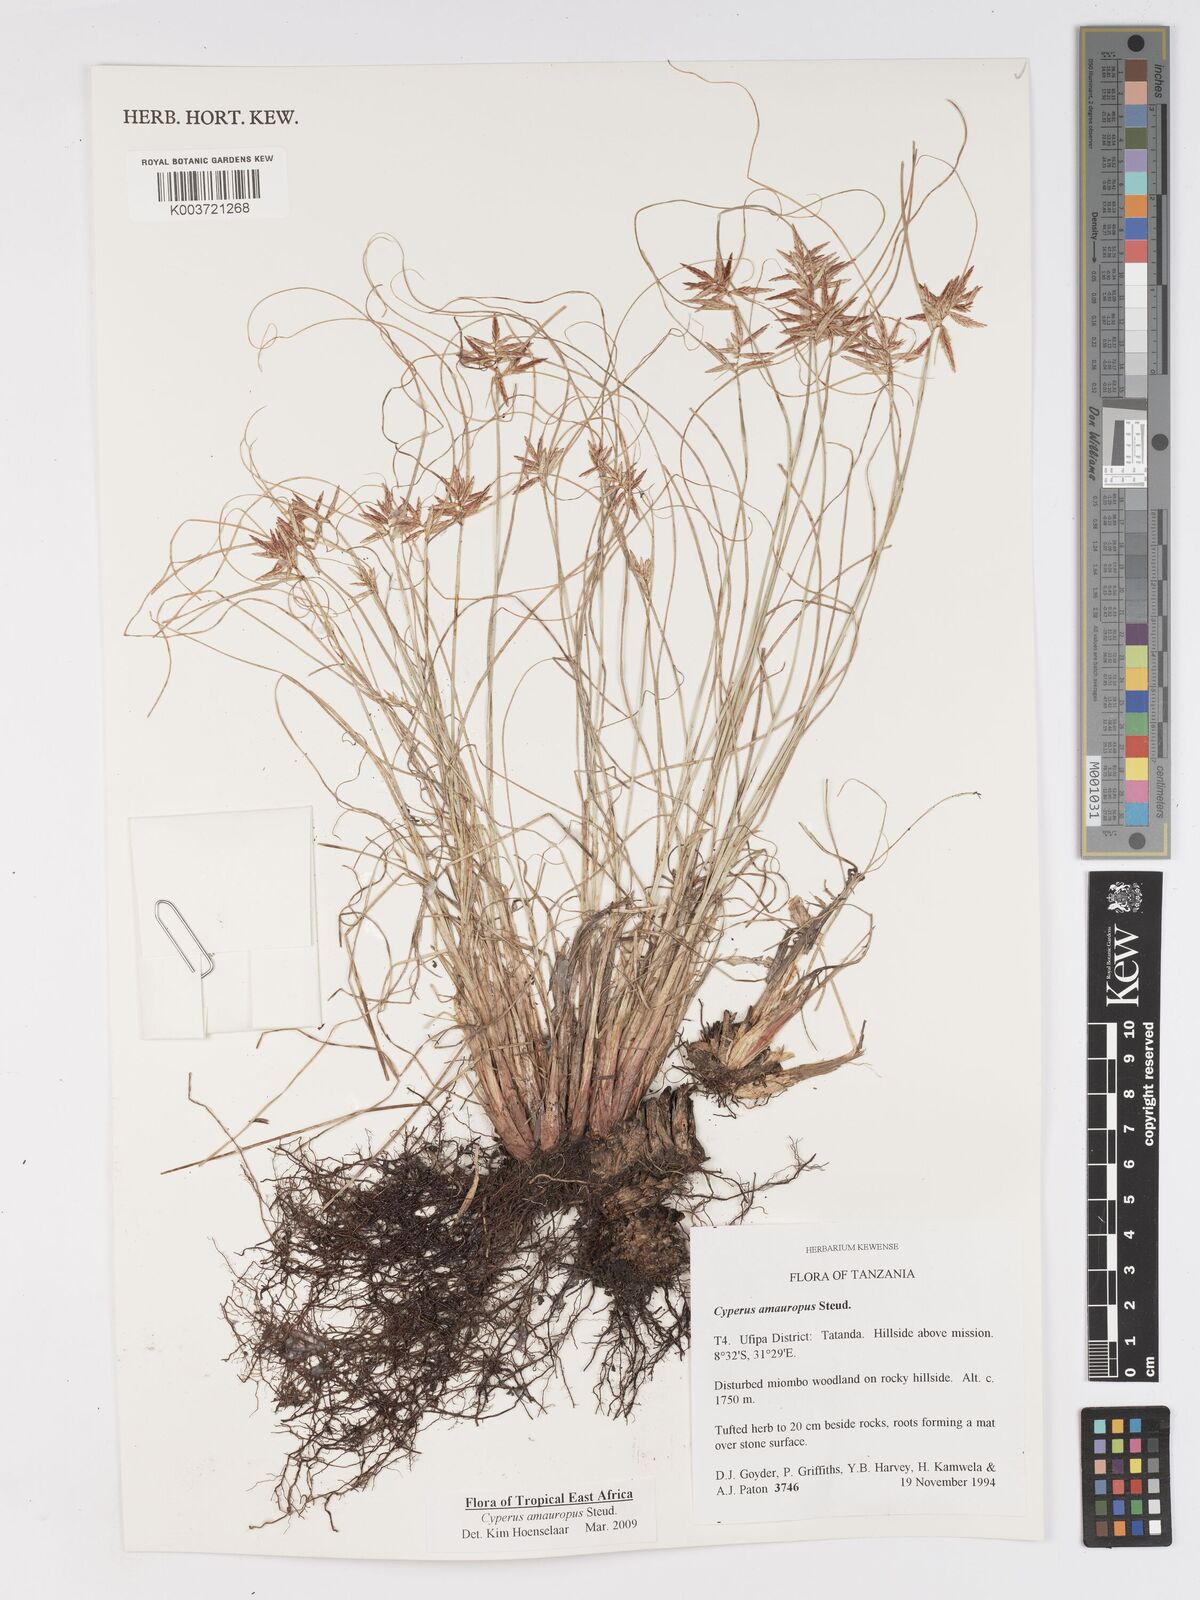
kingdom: Plantae
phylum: Tracheophyta
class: Liliopsida
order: Poales
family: Cyperaceae
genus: Cyperus
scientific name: Cyperus amauropus
